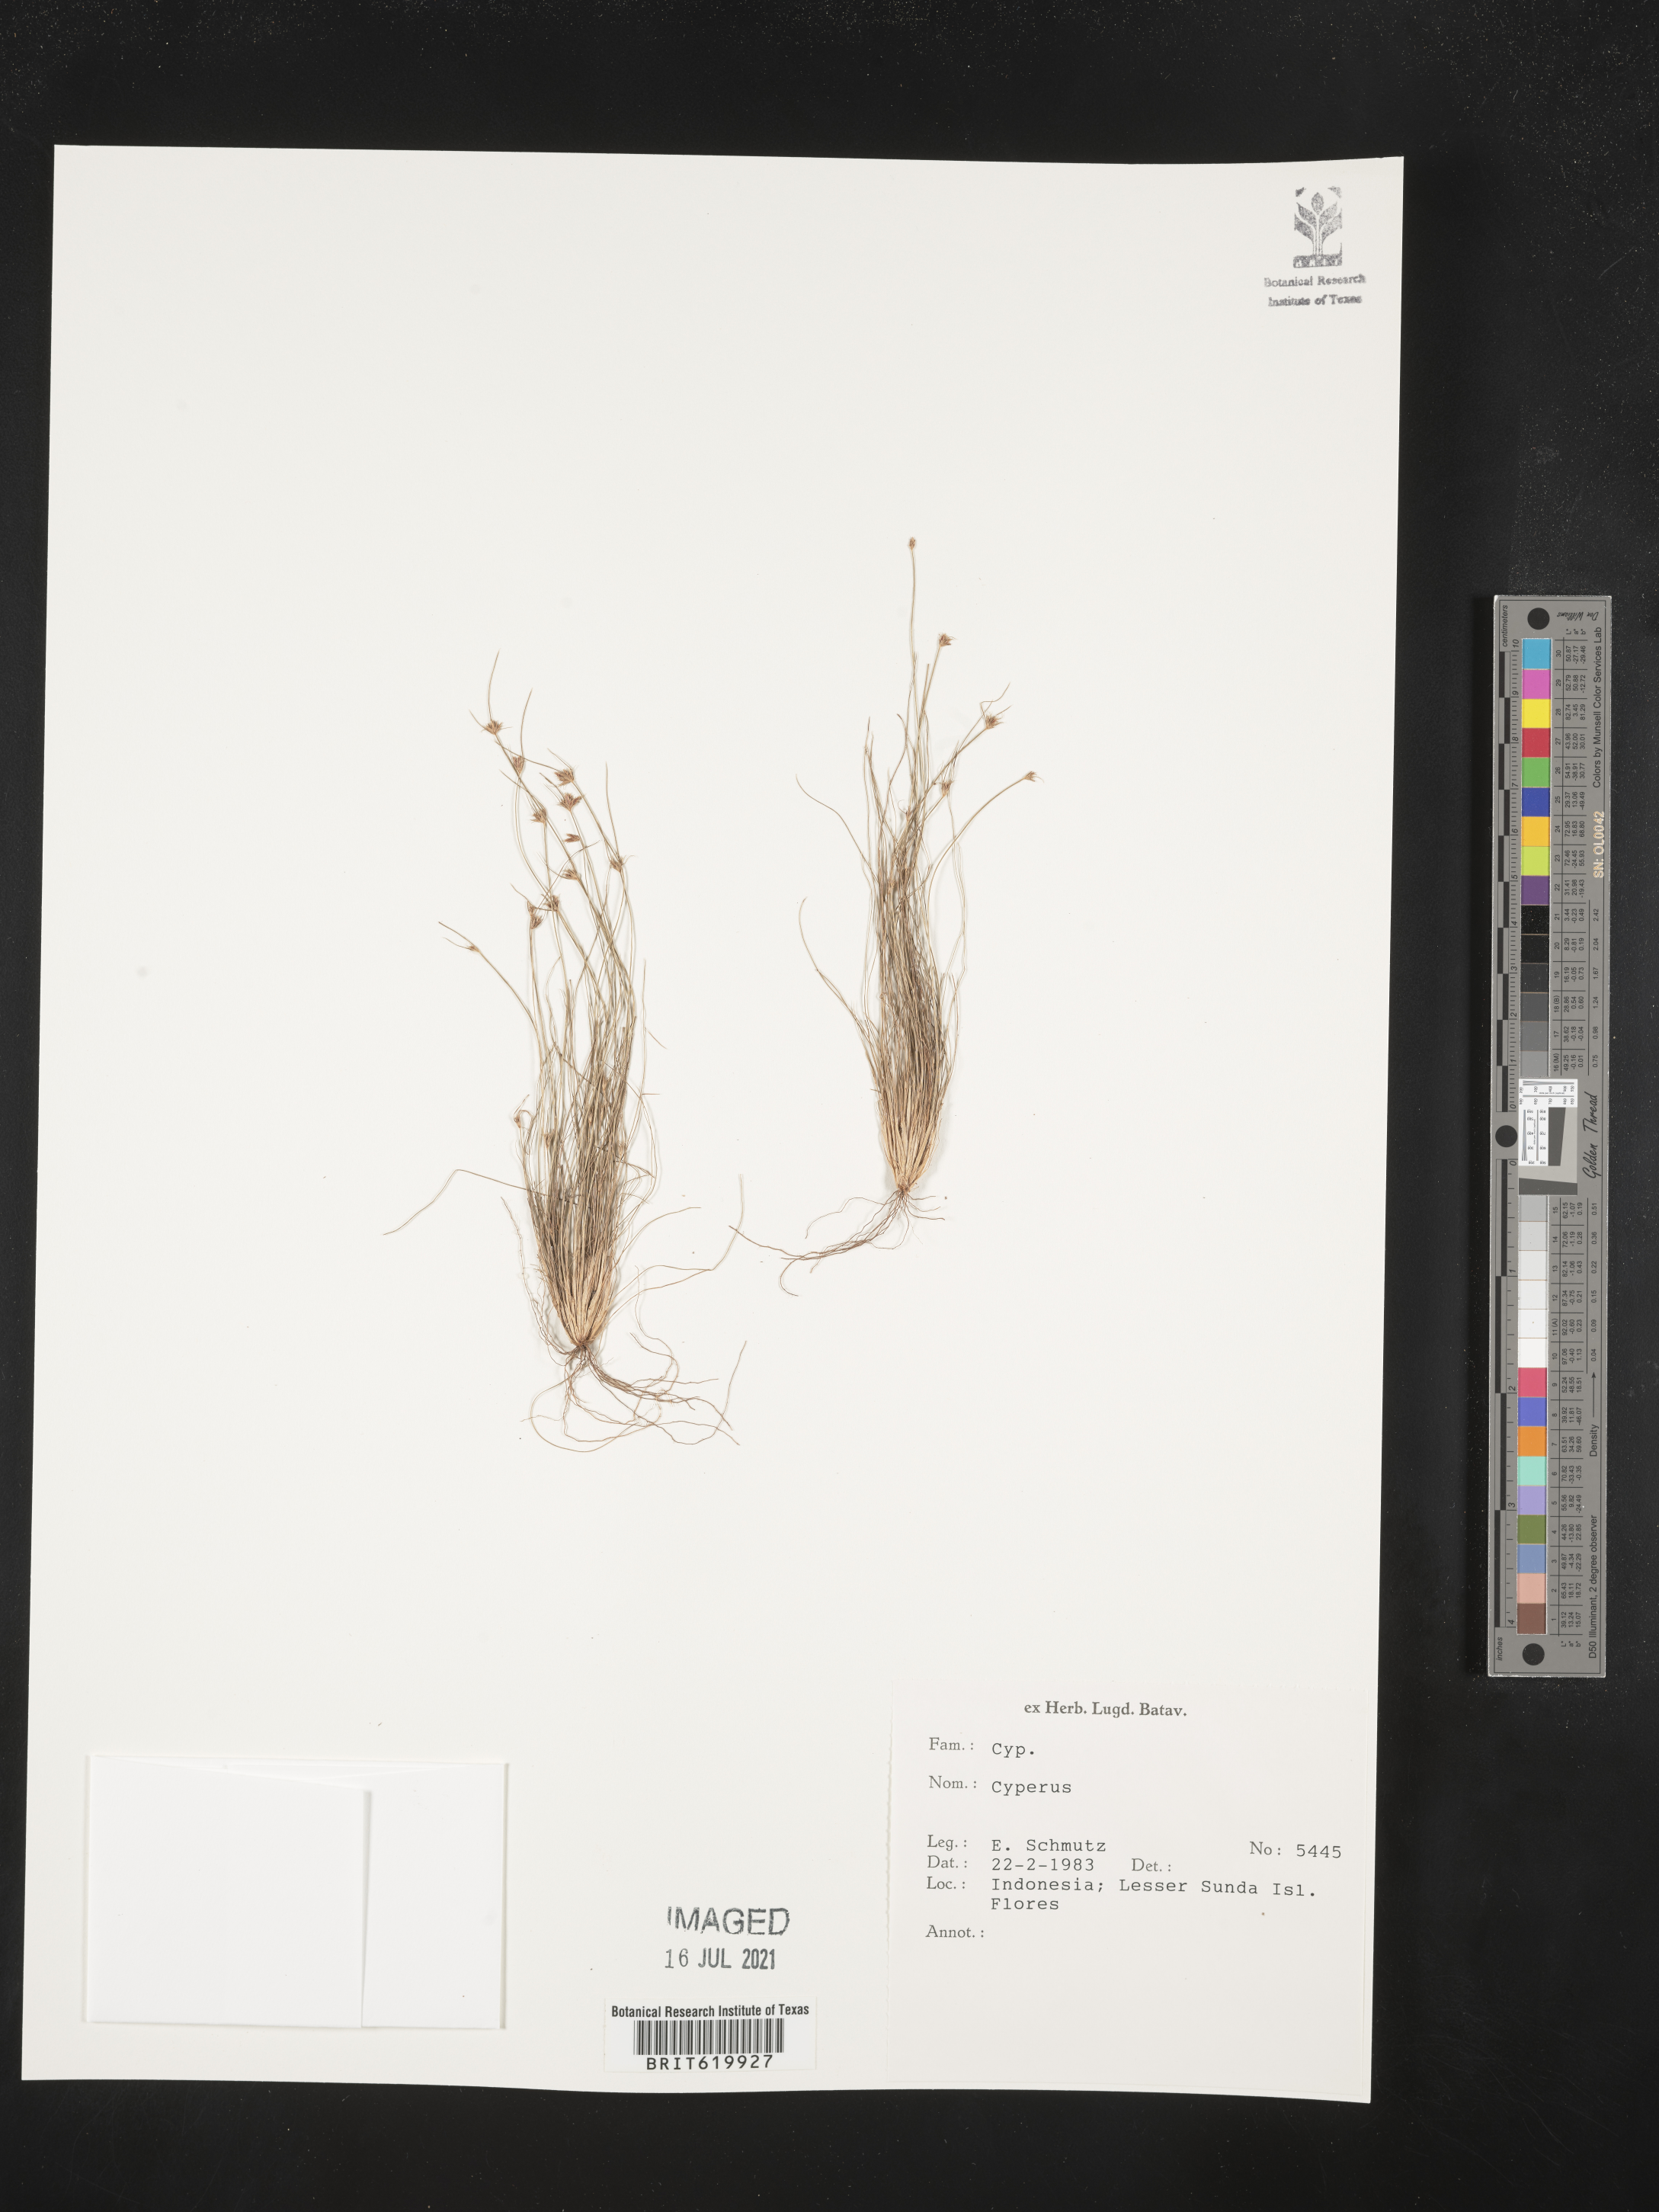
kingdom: Plantae
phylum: Tracheophyta
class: Liliopsida
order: Poales
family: Cyperaceae
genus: Cyperus
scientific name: Cyperus
